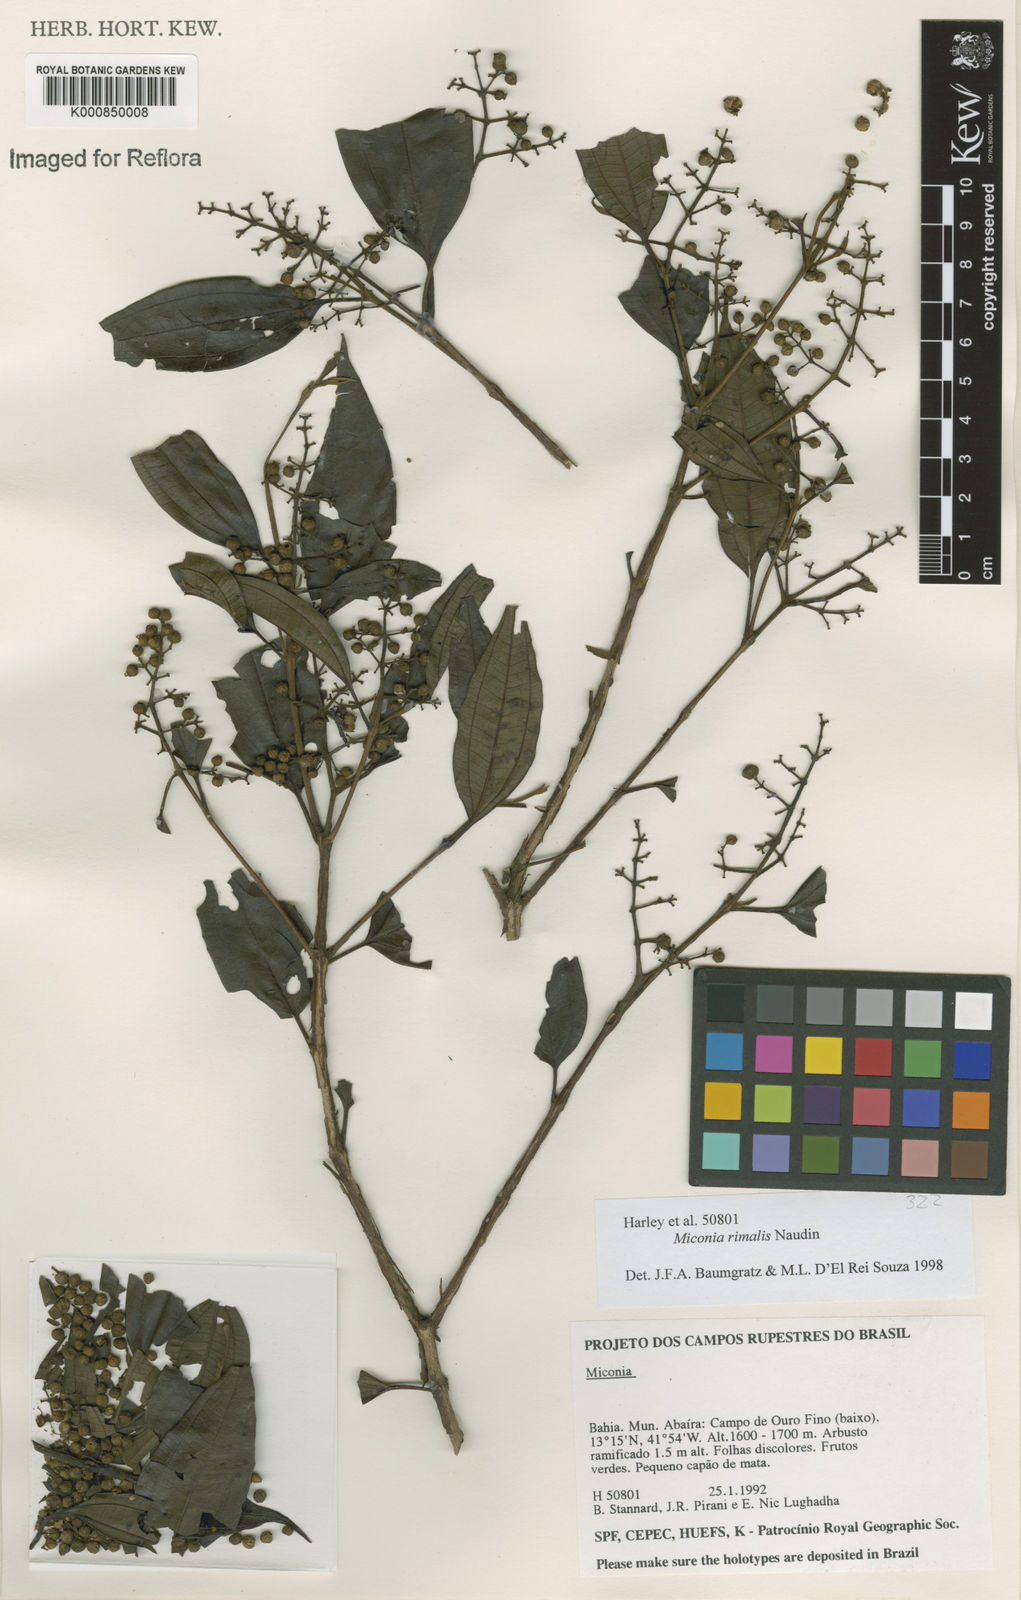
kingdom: Plantae
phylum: Tracheophyta
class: Magnoliopsida
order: Myrtales
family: Melastomataceae
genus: Miconia
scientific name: Miconia
